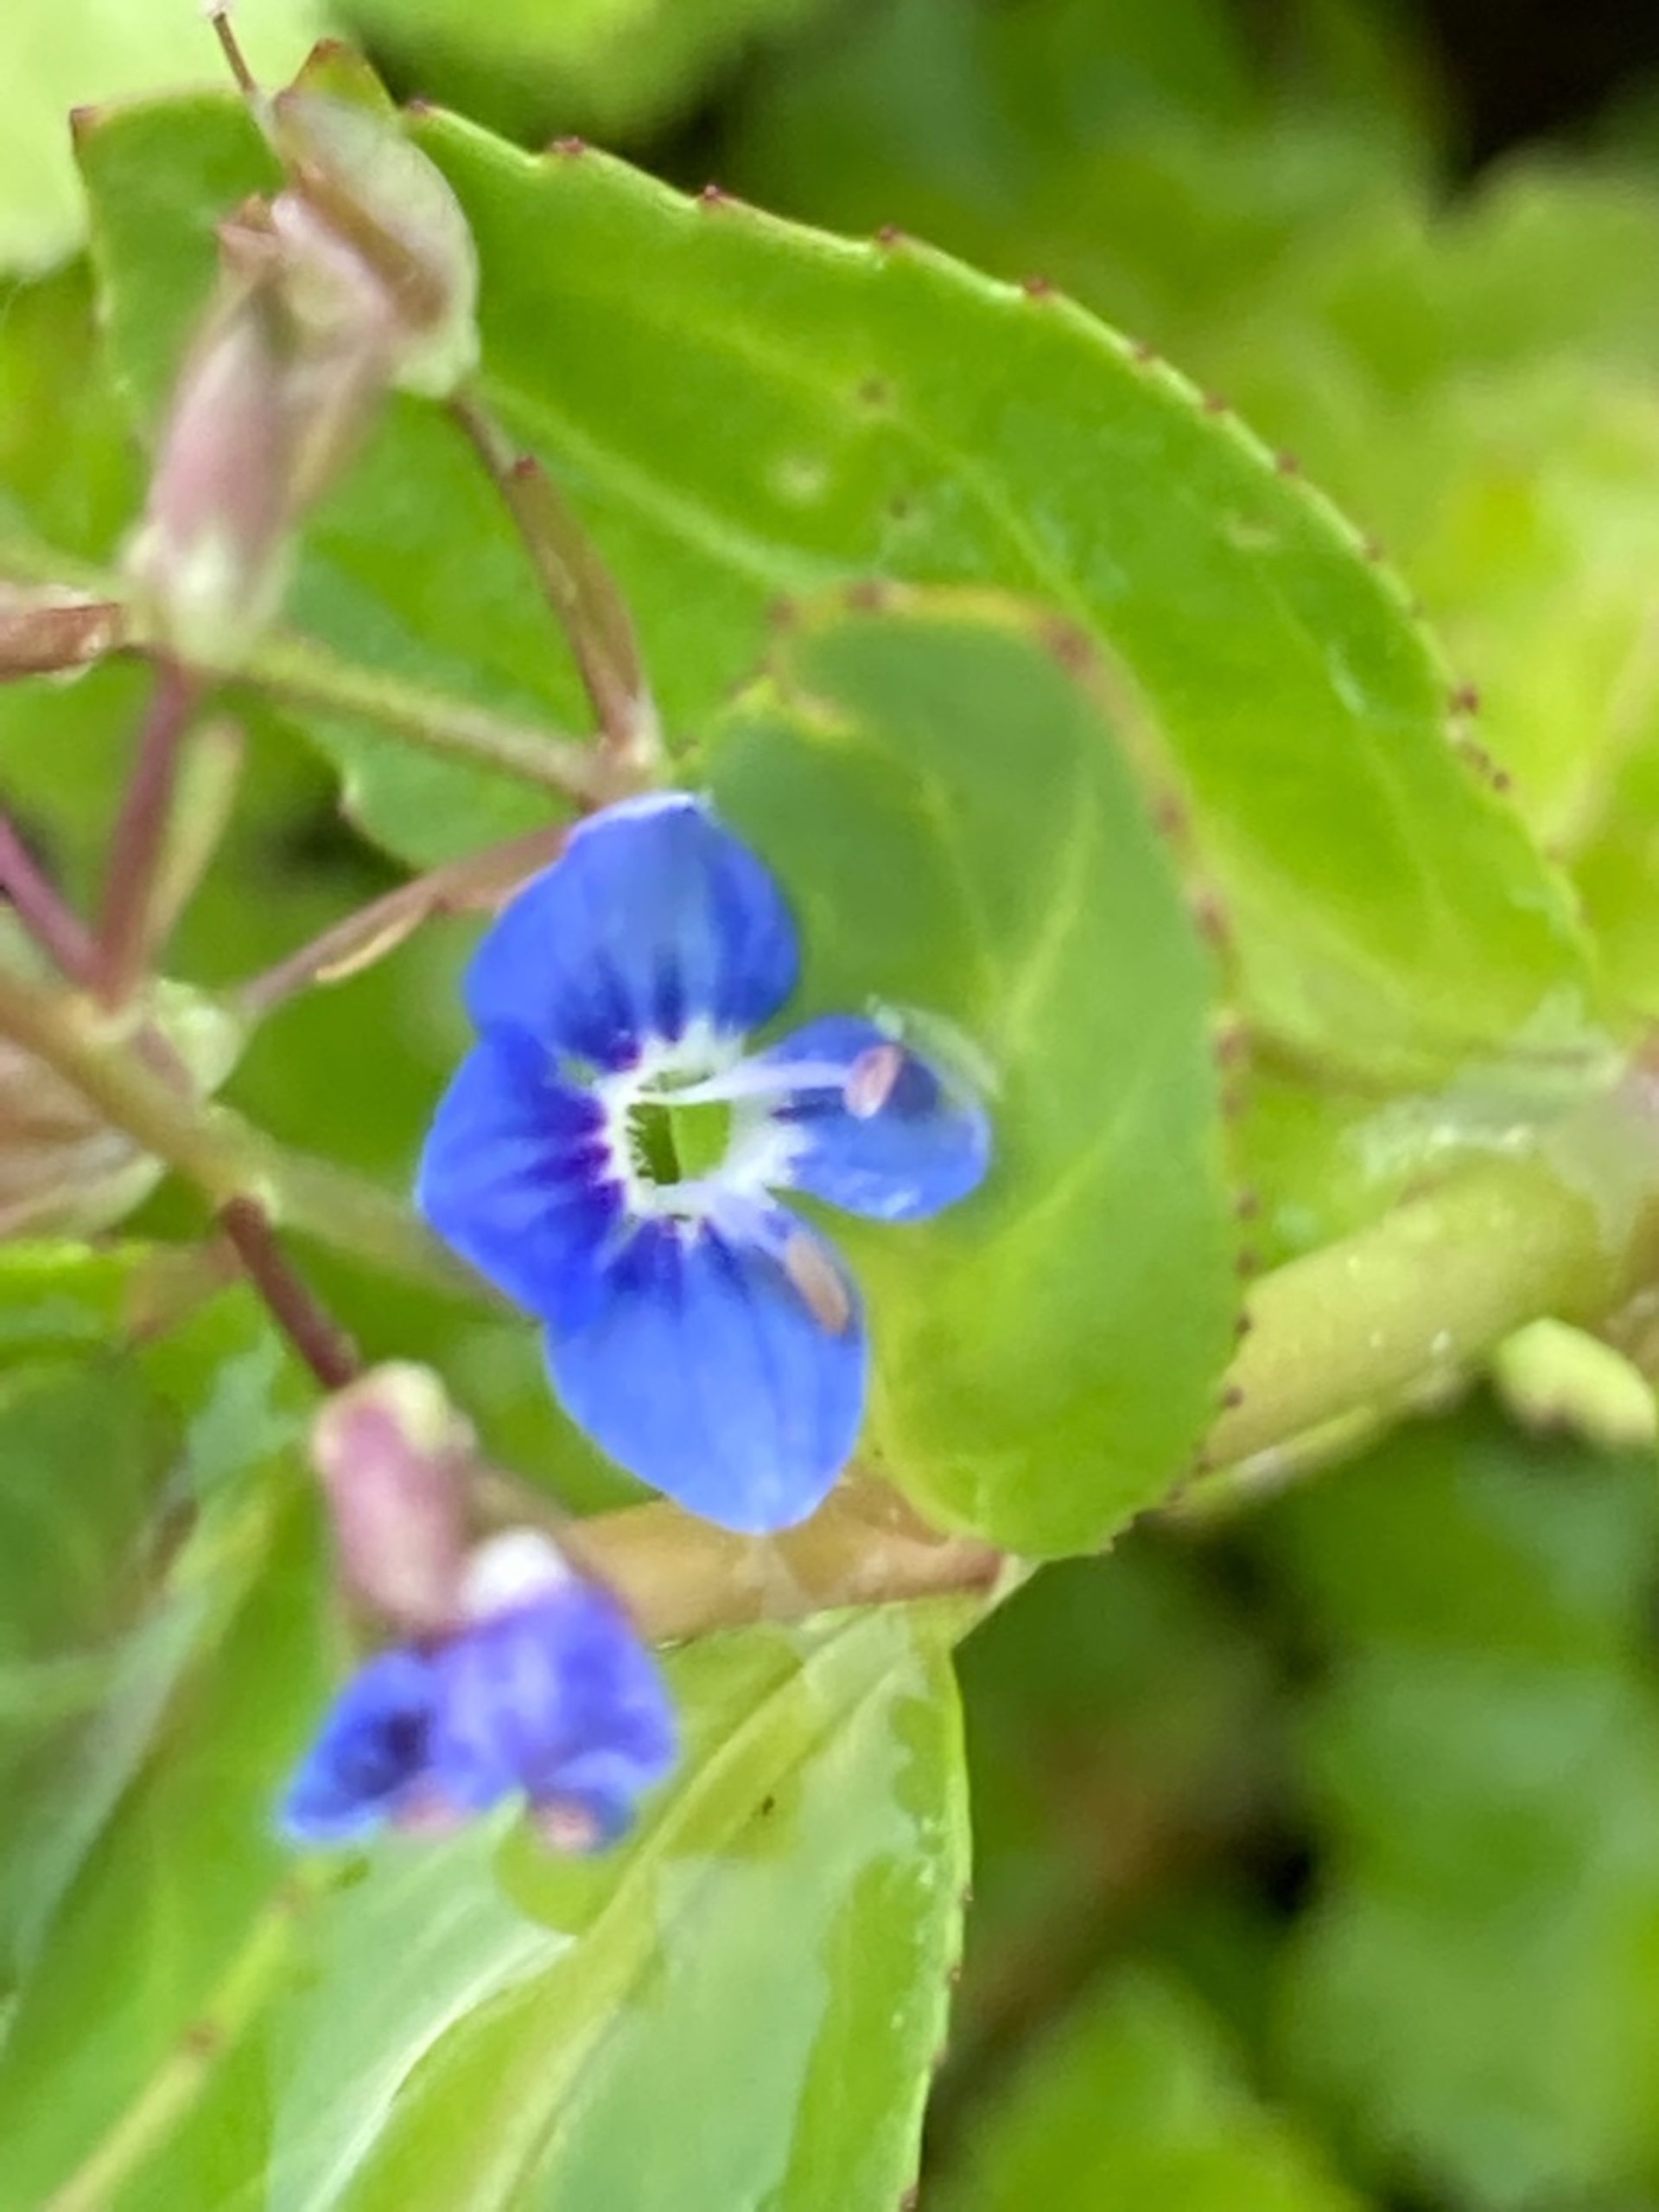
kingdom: Plantae
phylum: Tracheophyta
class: Magnoliopsida
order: Lamiales
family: Plantaginaceae
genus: Veronica
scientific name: Veronica beccabunga
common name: Tykbladet ærenpris
